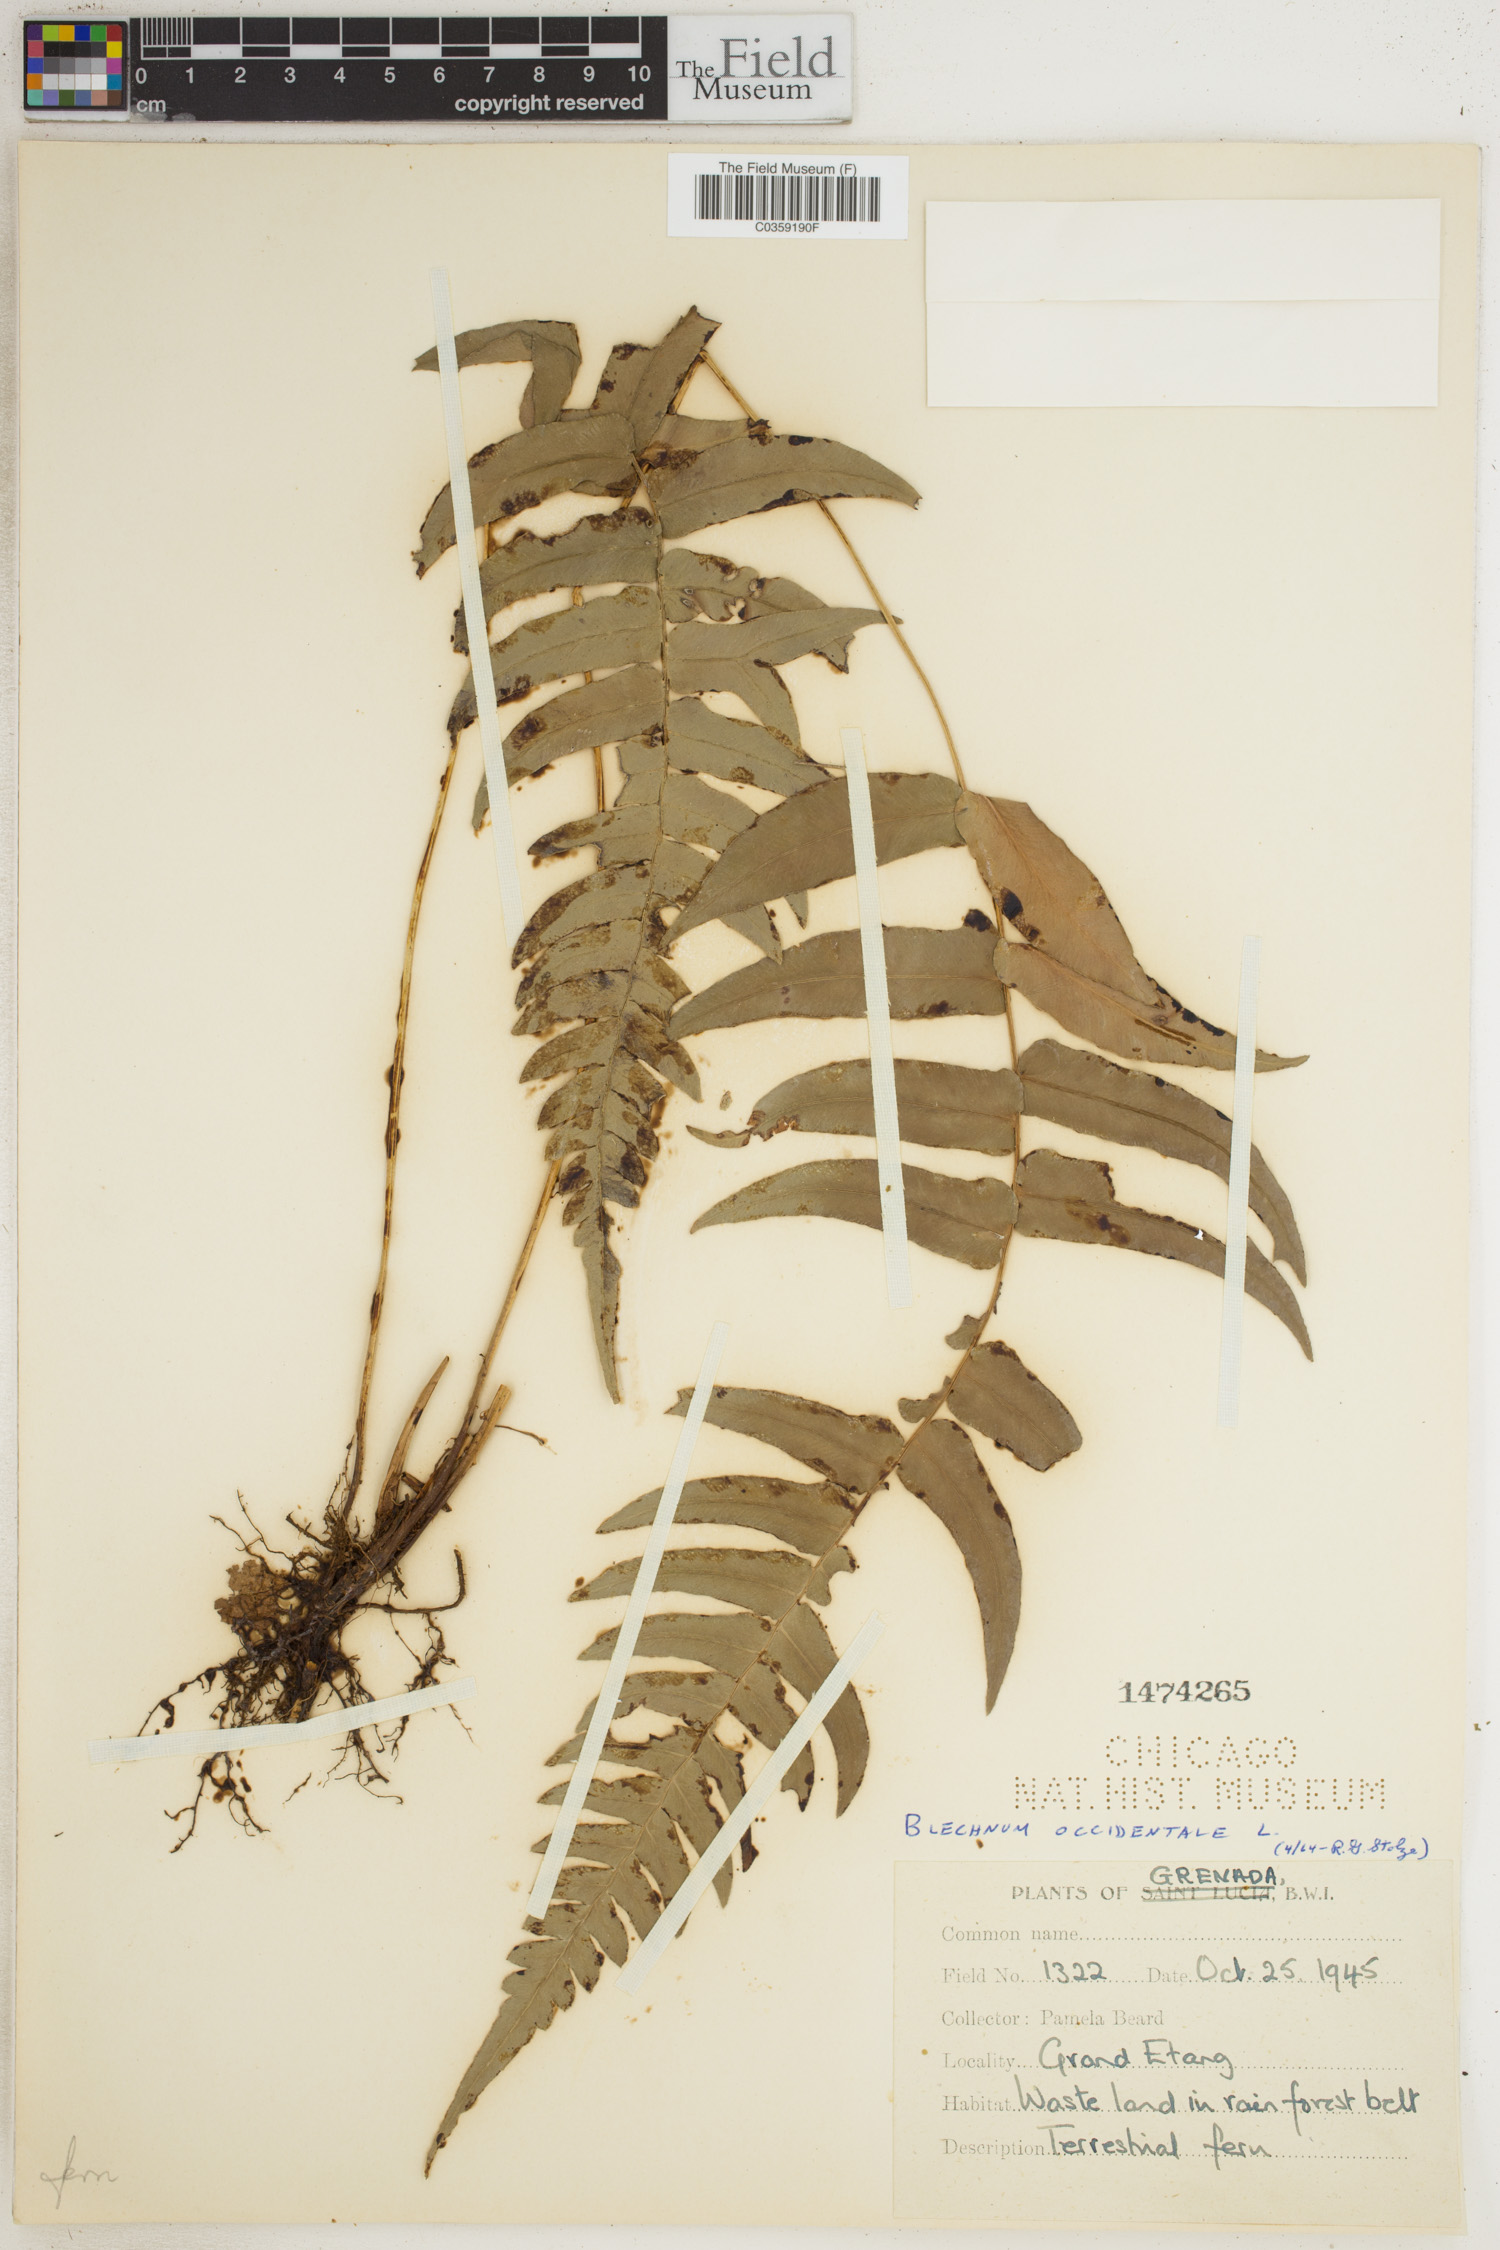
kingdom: Plantae
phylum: Tracheophyta
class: Polypodiopsida
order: Polypodiales
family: Blechnaceae
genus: Blechnum
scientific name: Blechnum occidentale
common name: Hammock fern
